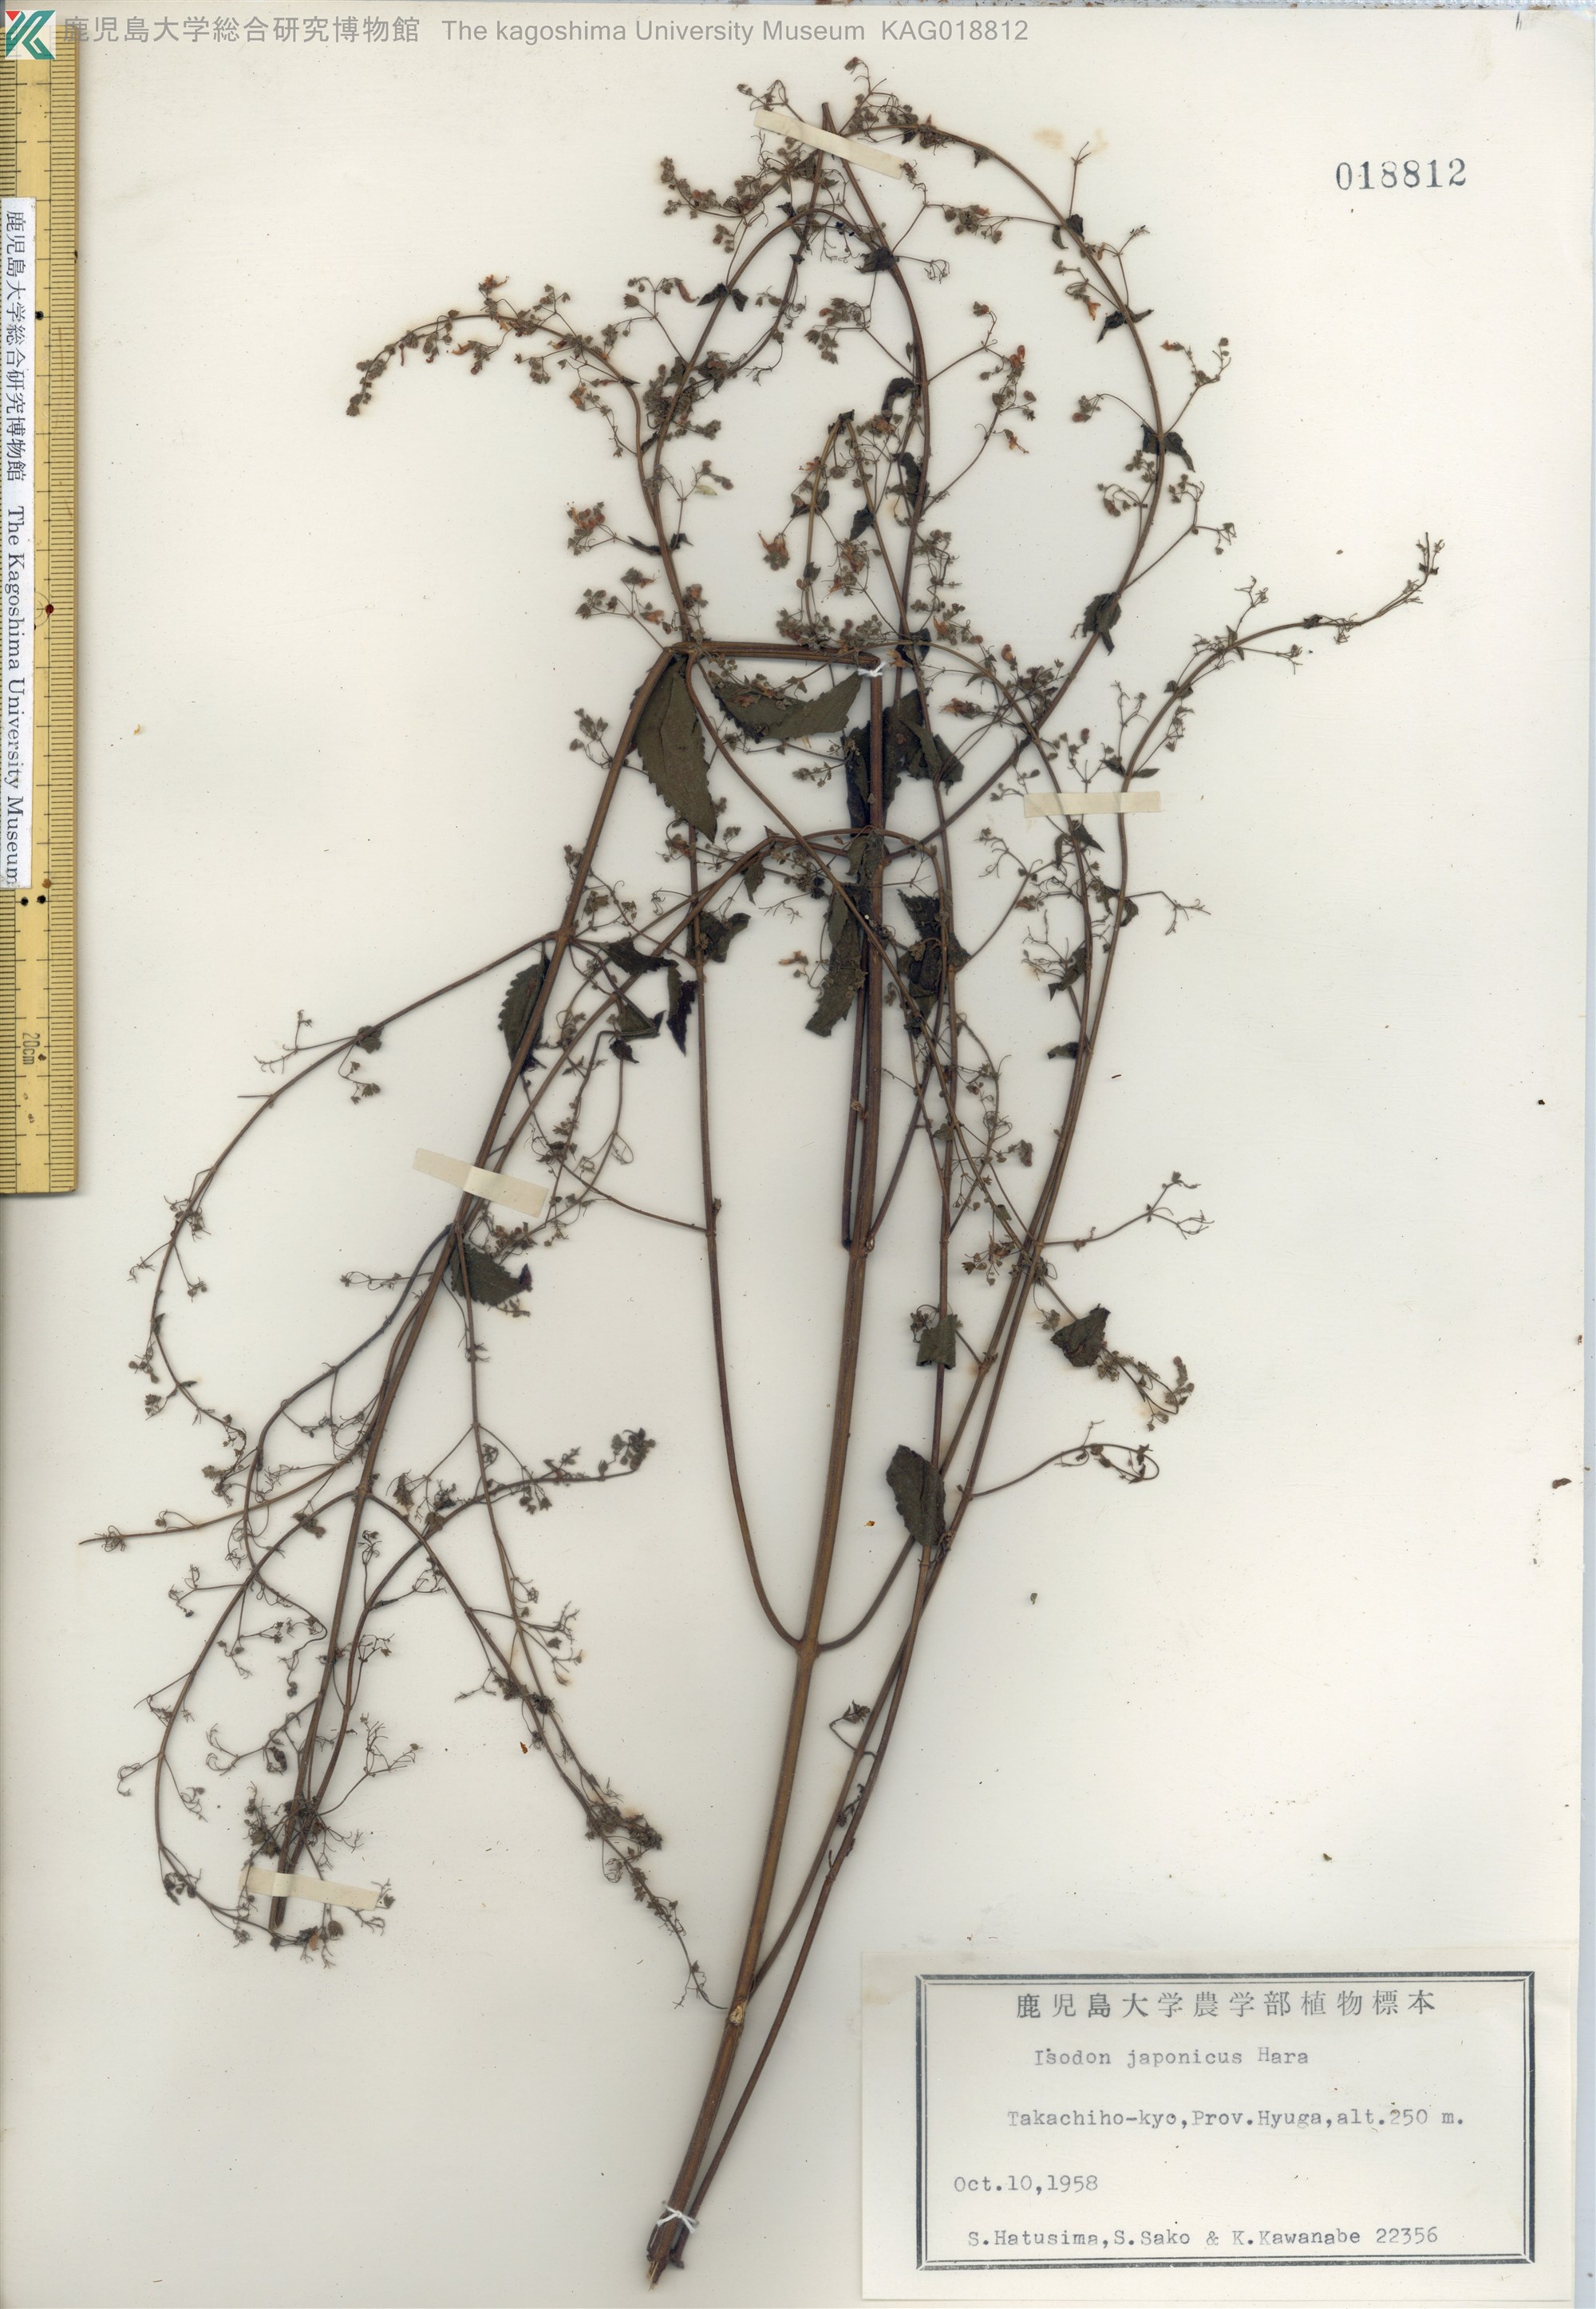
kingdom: Plantae
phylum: Tracheophyta
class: Magnoliopsida
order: Lamiales
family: Lamiaceae
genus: Isodon
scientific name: Isodon japonicus
